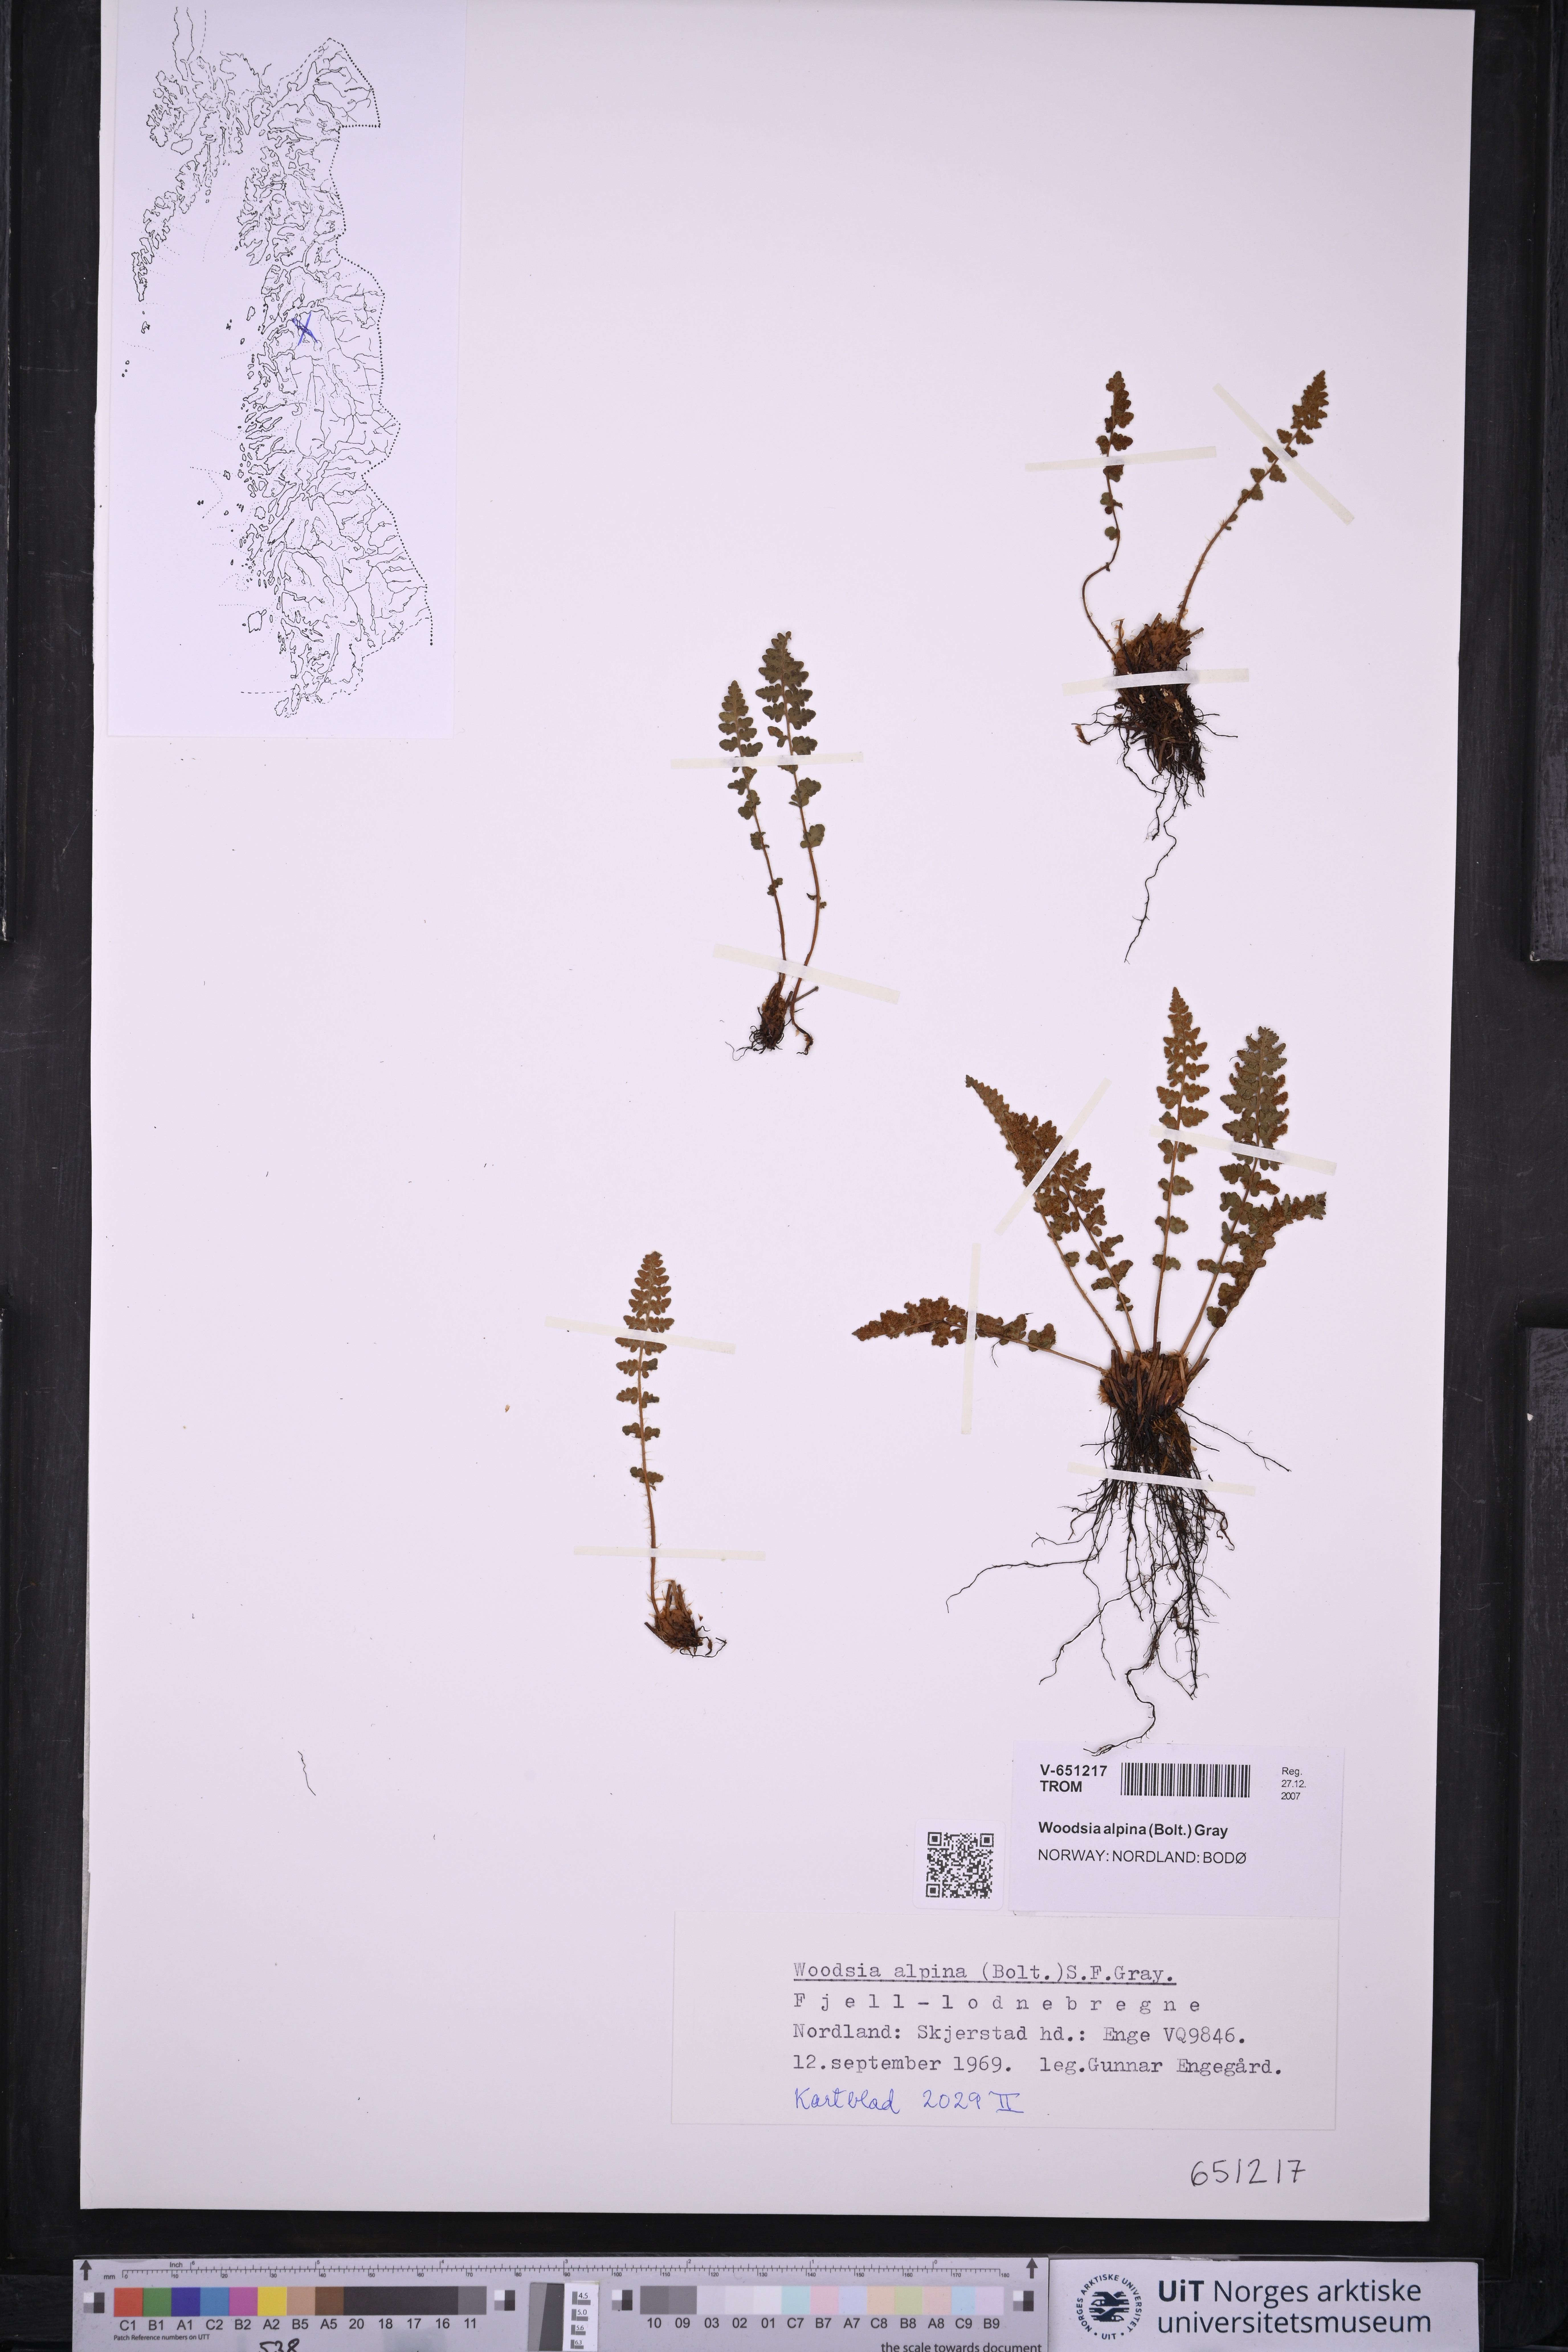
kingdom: Plantae
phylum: Tracheophyta
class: Polypodiopsida
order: Polypodiales
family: Woodsiaceae
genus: Woodsia
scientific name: Woodsia alpina
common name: Alpine woodsia
